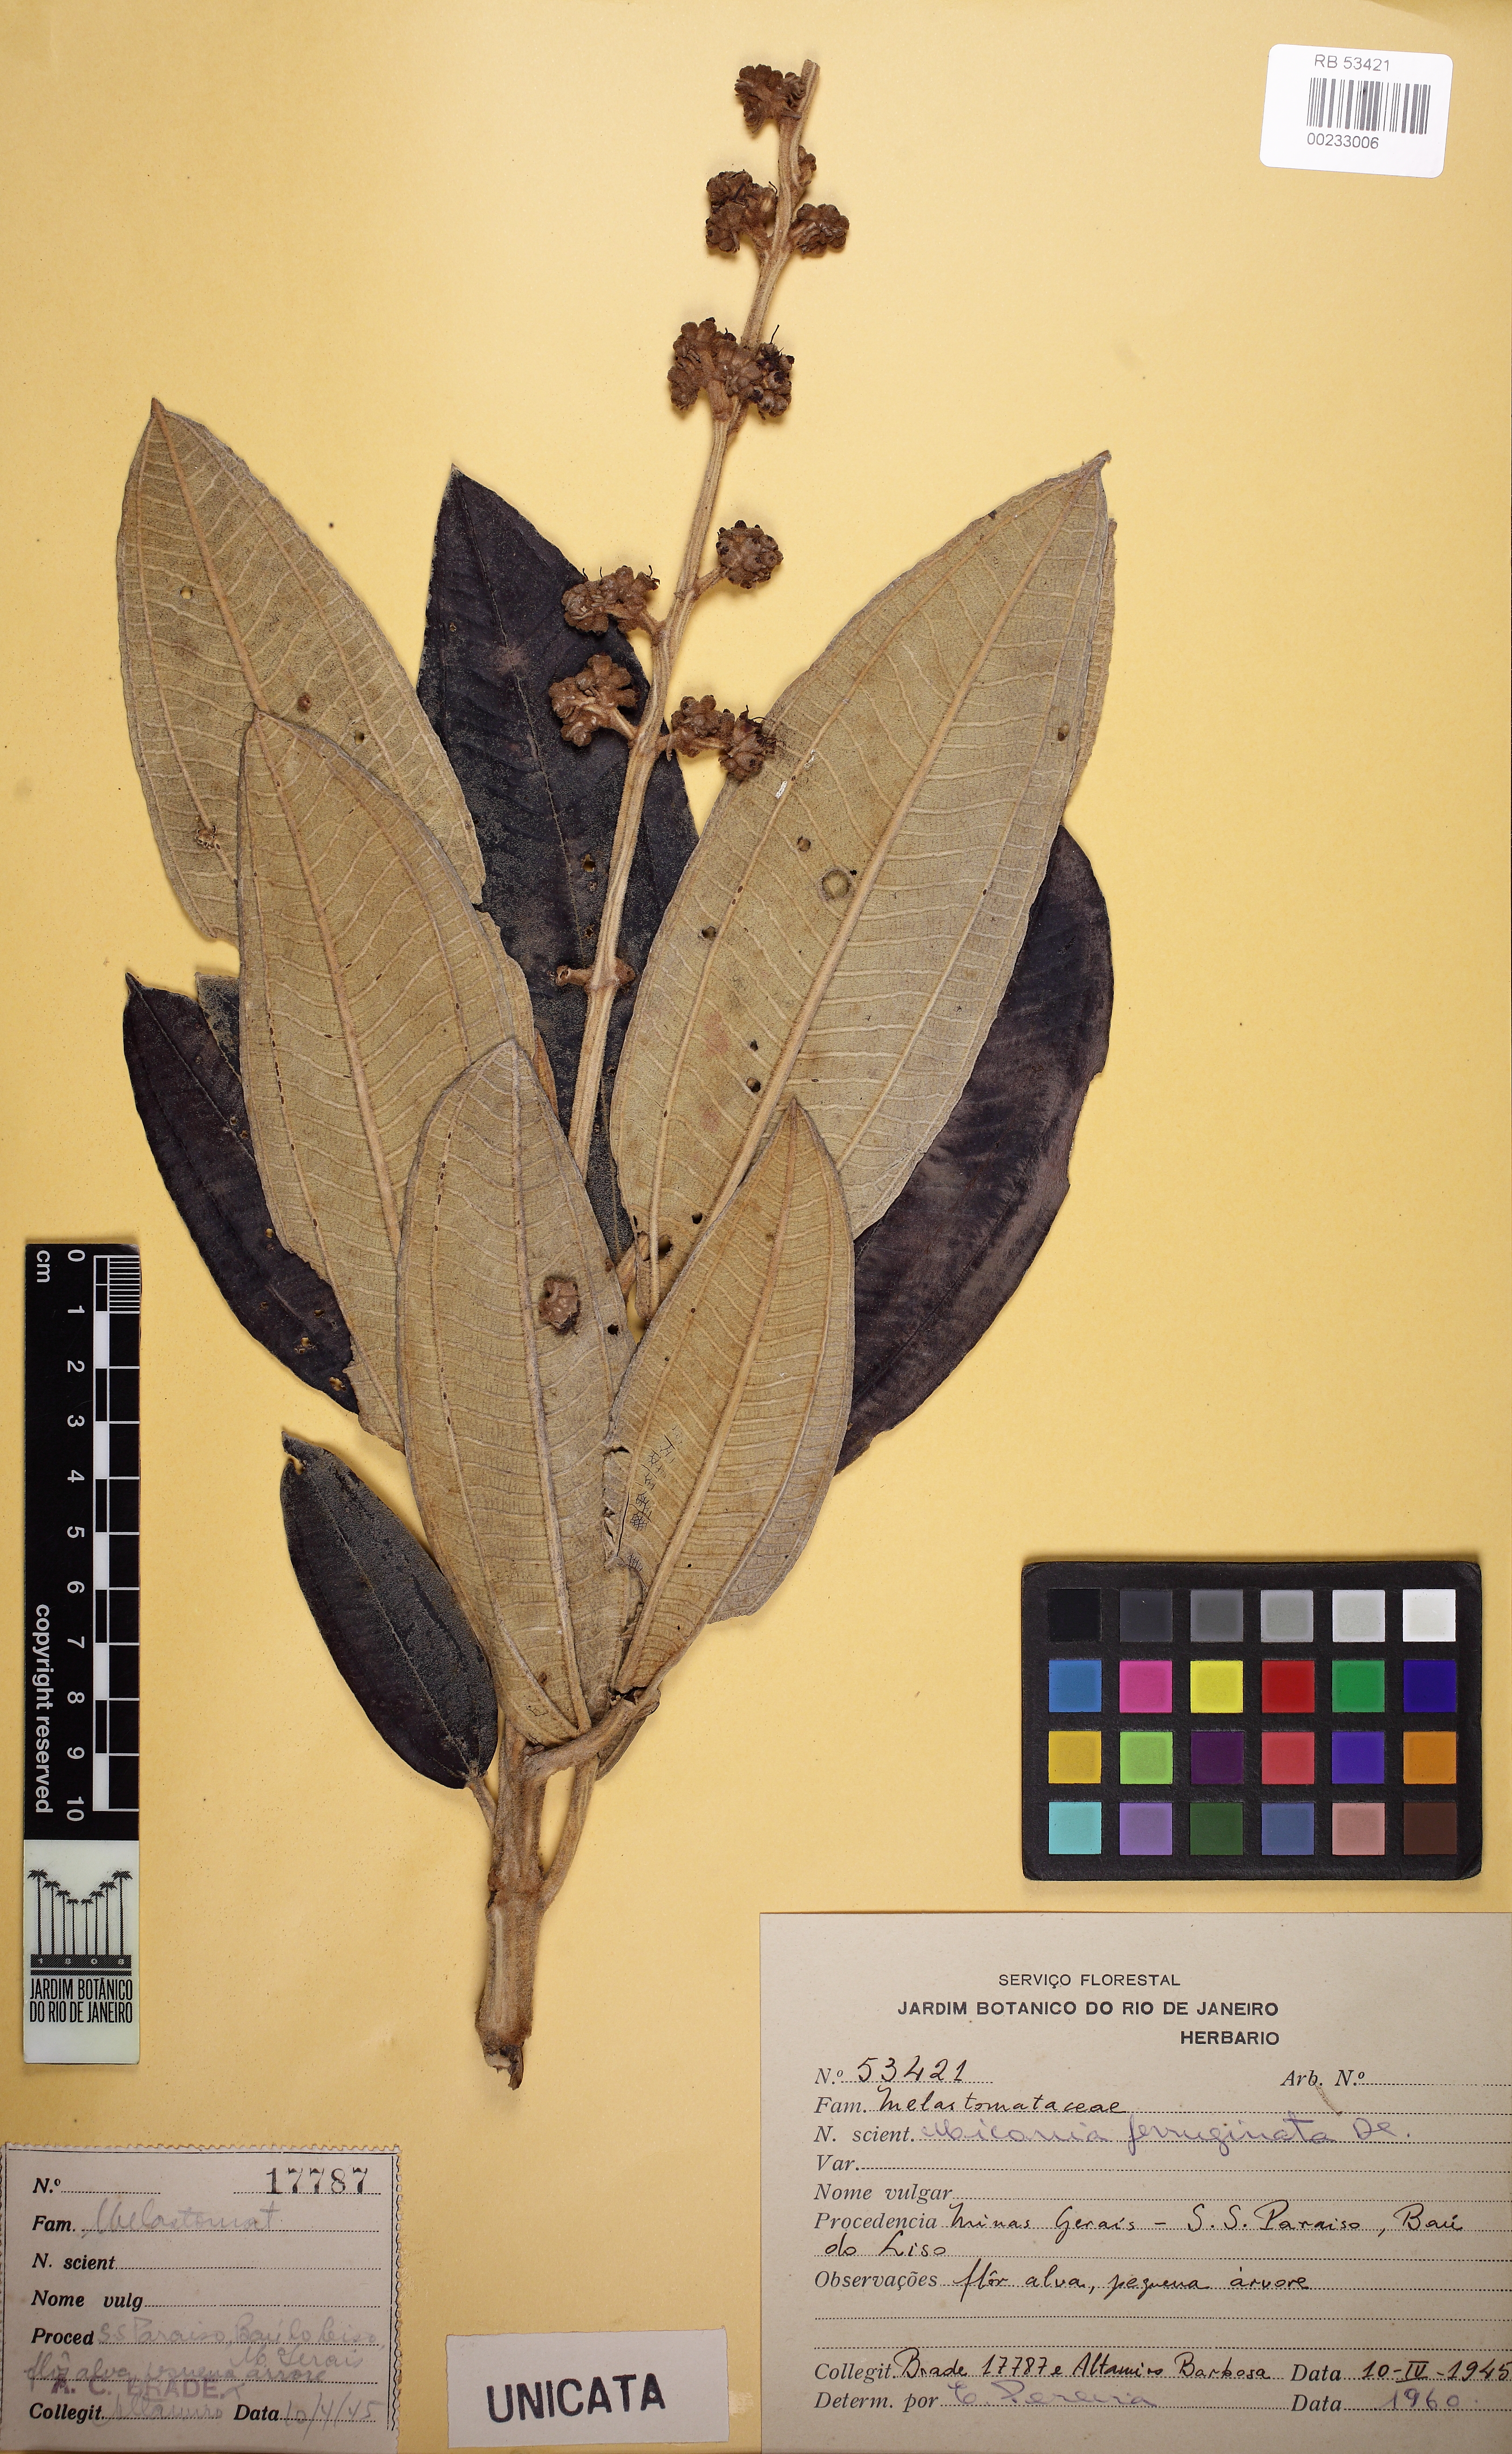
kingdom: Plantae
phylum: Tracheophyta
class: Magnoliopsida
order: Myrtales
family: Melastomataceae
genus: Miconia
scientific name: Miconia ferruginata
